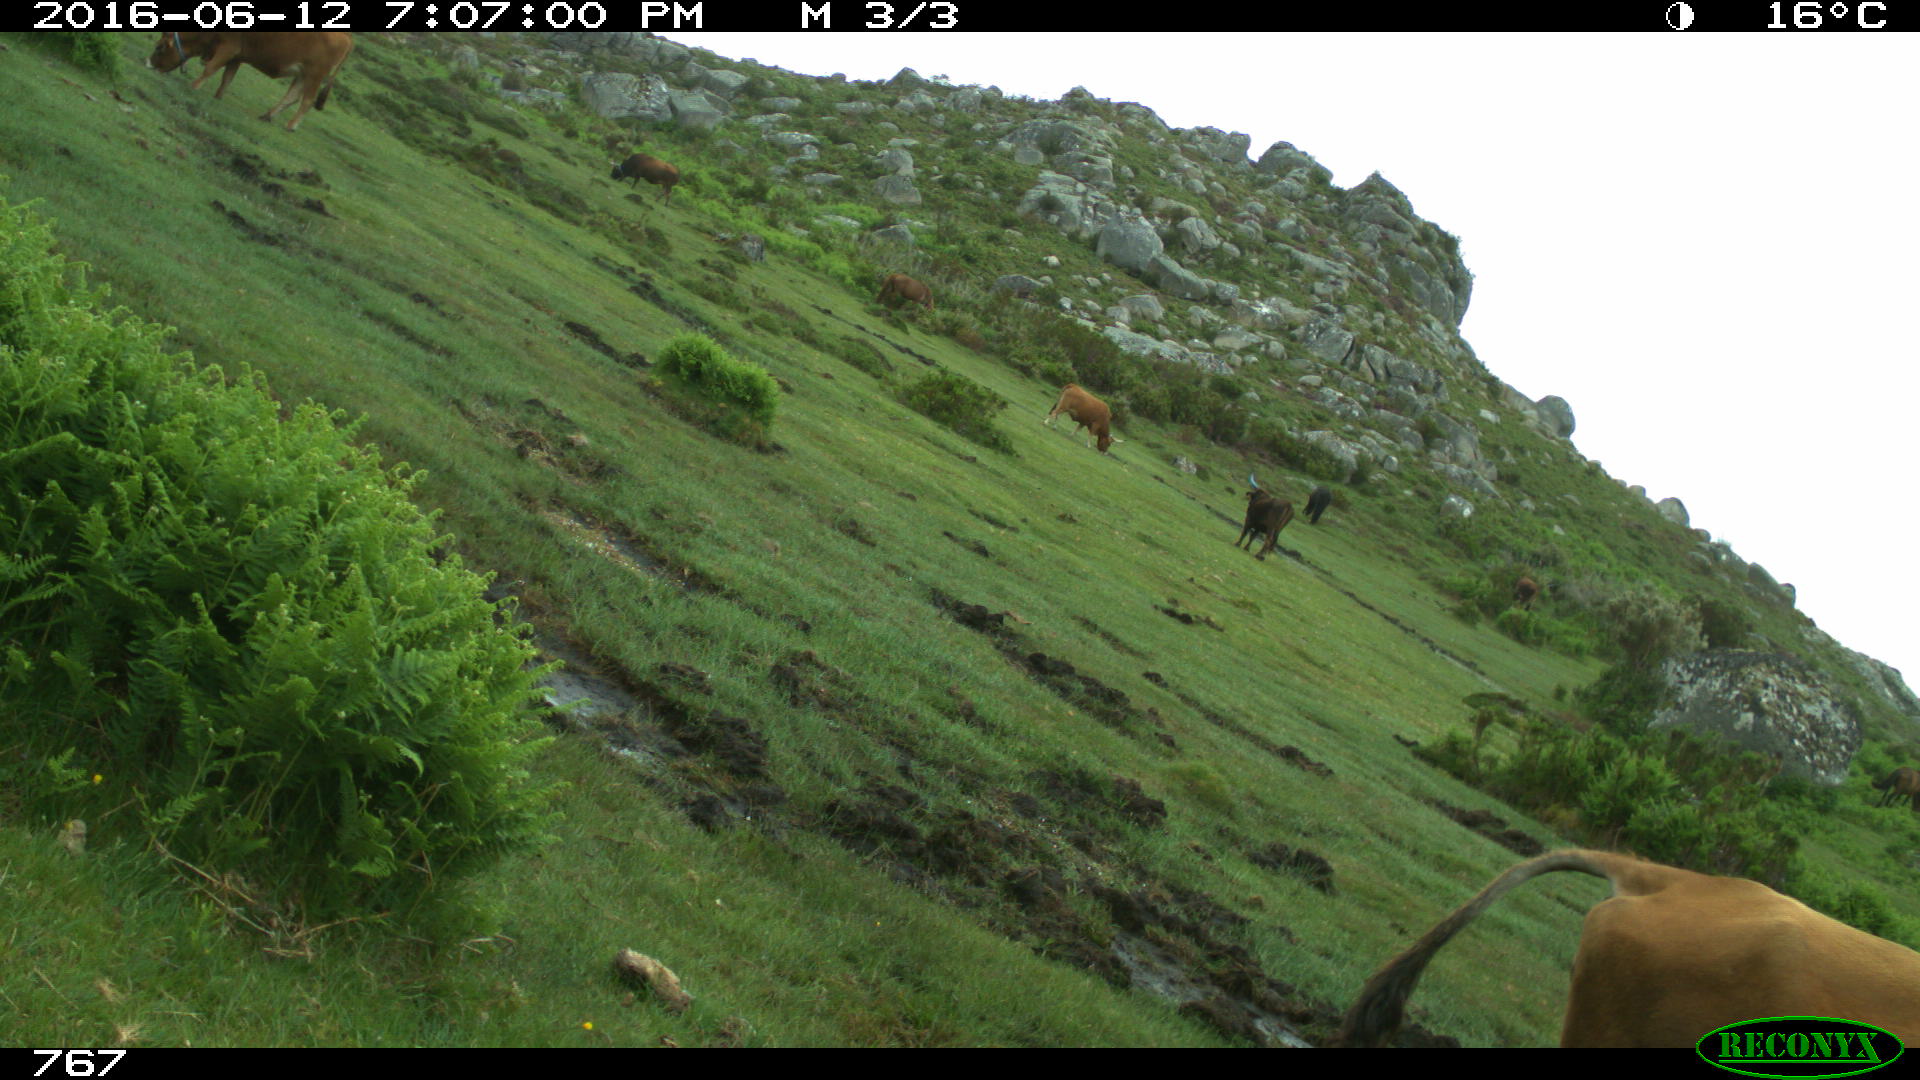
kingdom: Animalia
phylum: Chordata
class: Mammalia
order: Artiodactyla
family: Bovidae
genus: Bos
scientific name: Bos taurus
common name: Domesticated cattle
